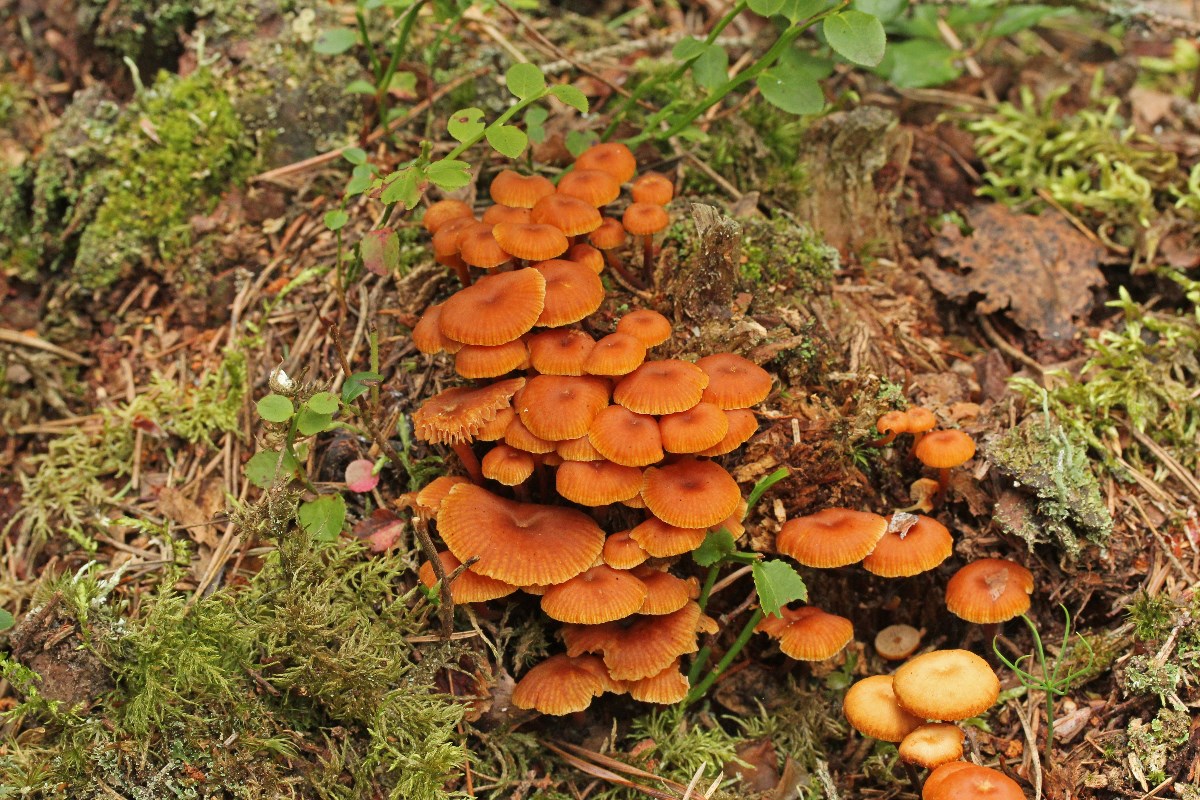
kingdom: Fungi
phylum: Basidiomycota
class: Agaricomycetes
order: Agaricales
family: Mycenaceae
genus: Xeromphalina
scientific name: Xeromphalina campanella
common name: klokke-tørhat
